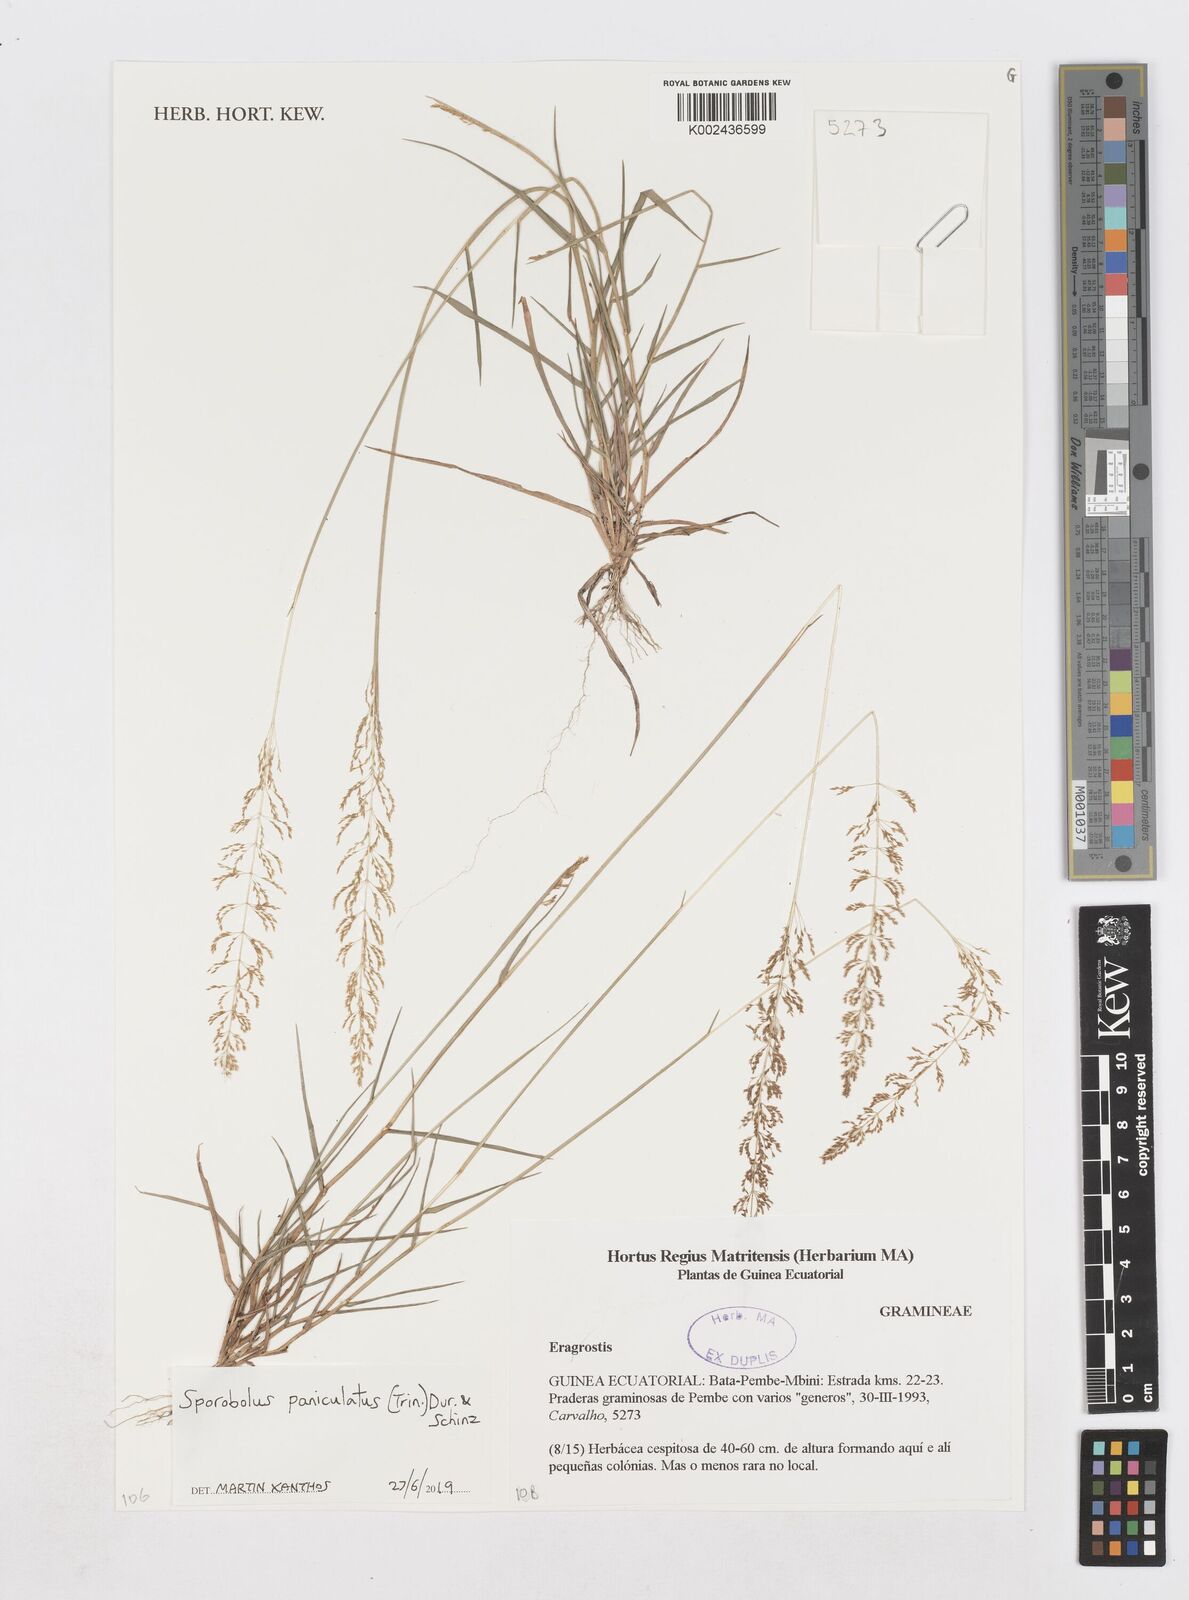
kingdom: Plantae
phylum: Tracheophyta
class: Liliopsida
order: Poales
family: Poaceae
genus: Sporobolus
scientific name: Sporobolus paniculatus
